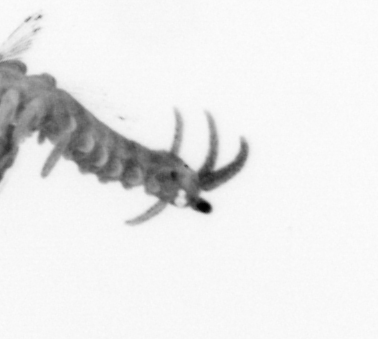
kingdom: Animalia
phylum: Annelida
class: Polychaeta
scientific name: Polychaeta
